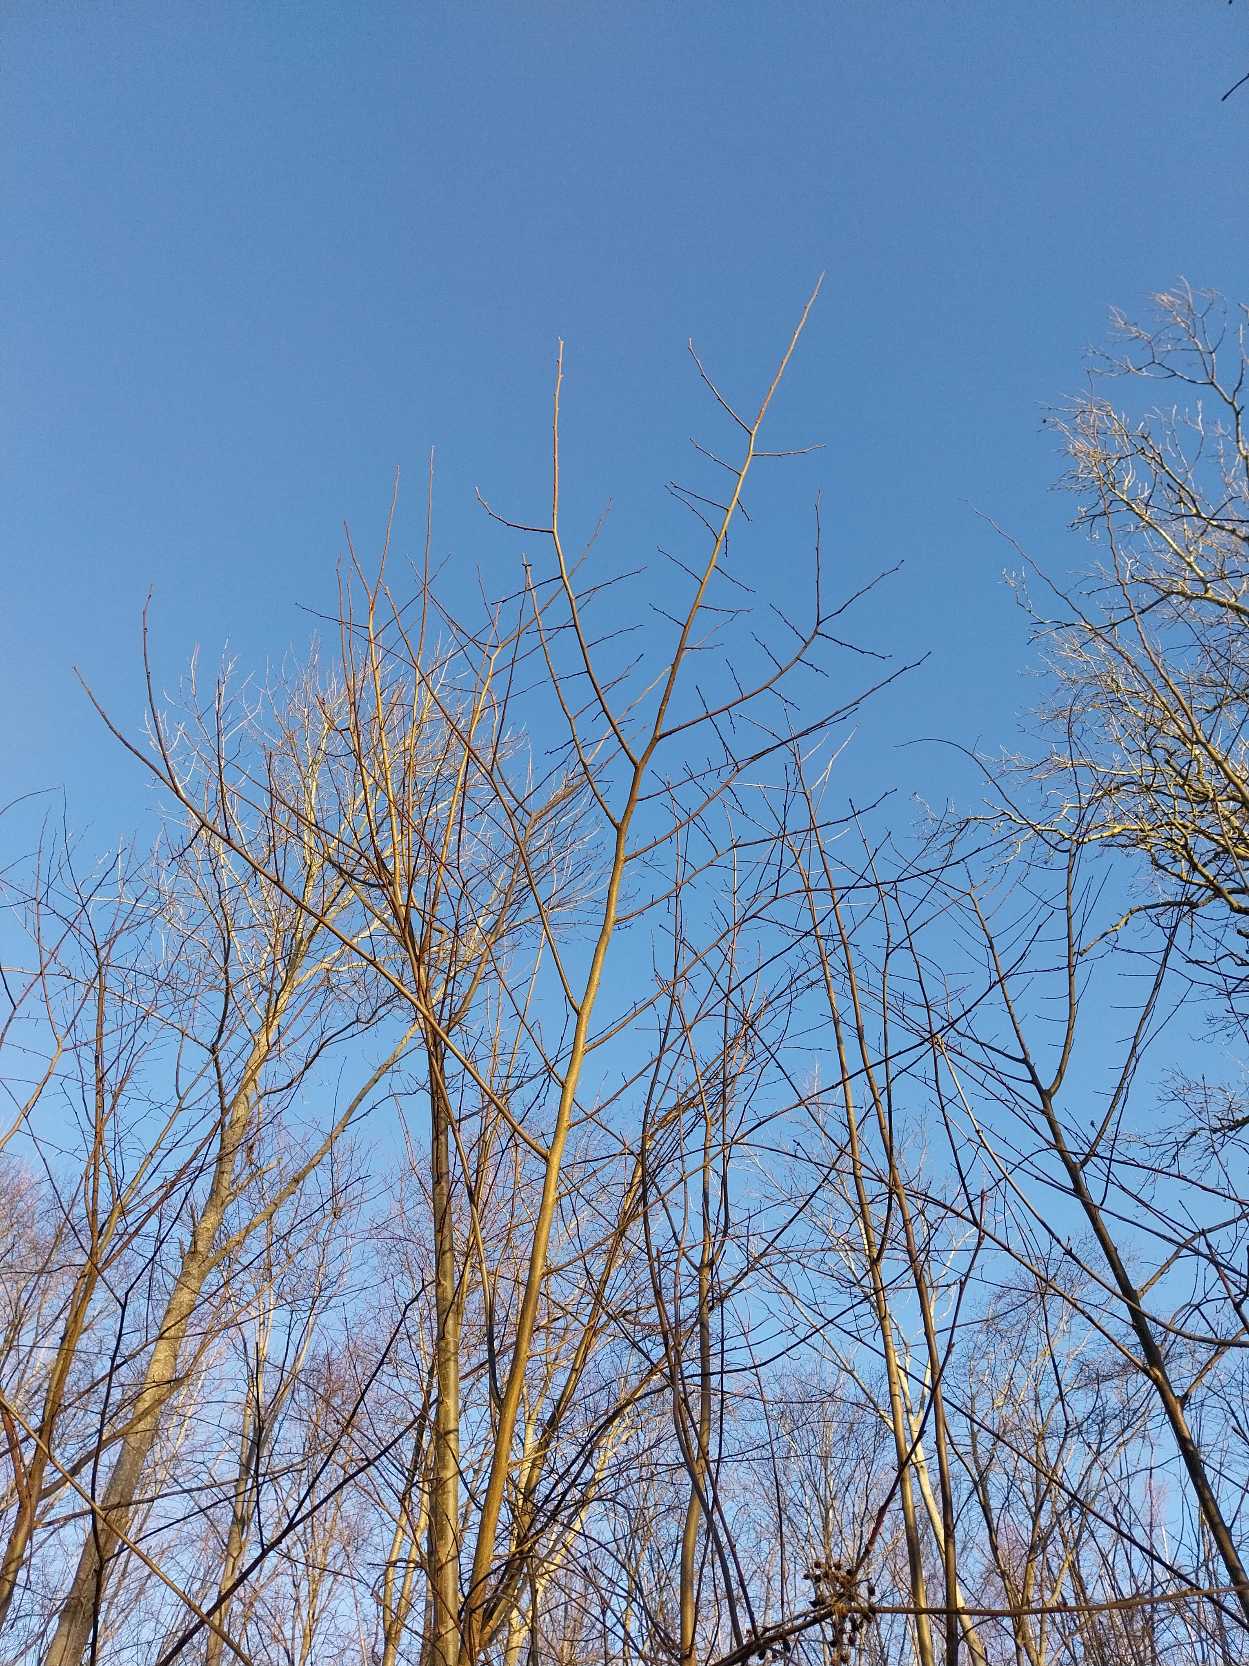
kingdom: Plantae
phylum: Tracheophyta
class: Magnoliopsida
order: Rosales
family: Ulmaceae
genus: Ulmus
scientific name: Ulmus glabra
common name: Skov-elm/storbladet elm
